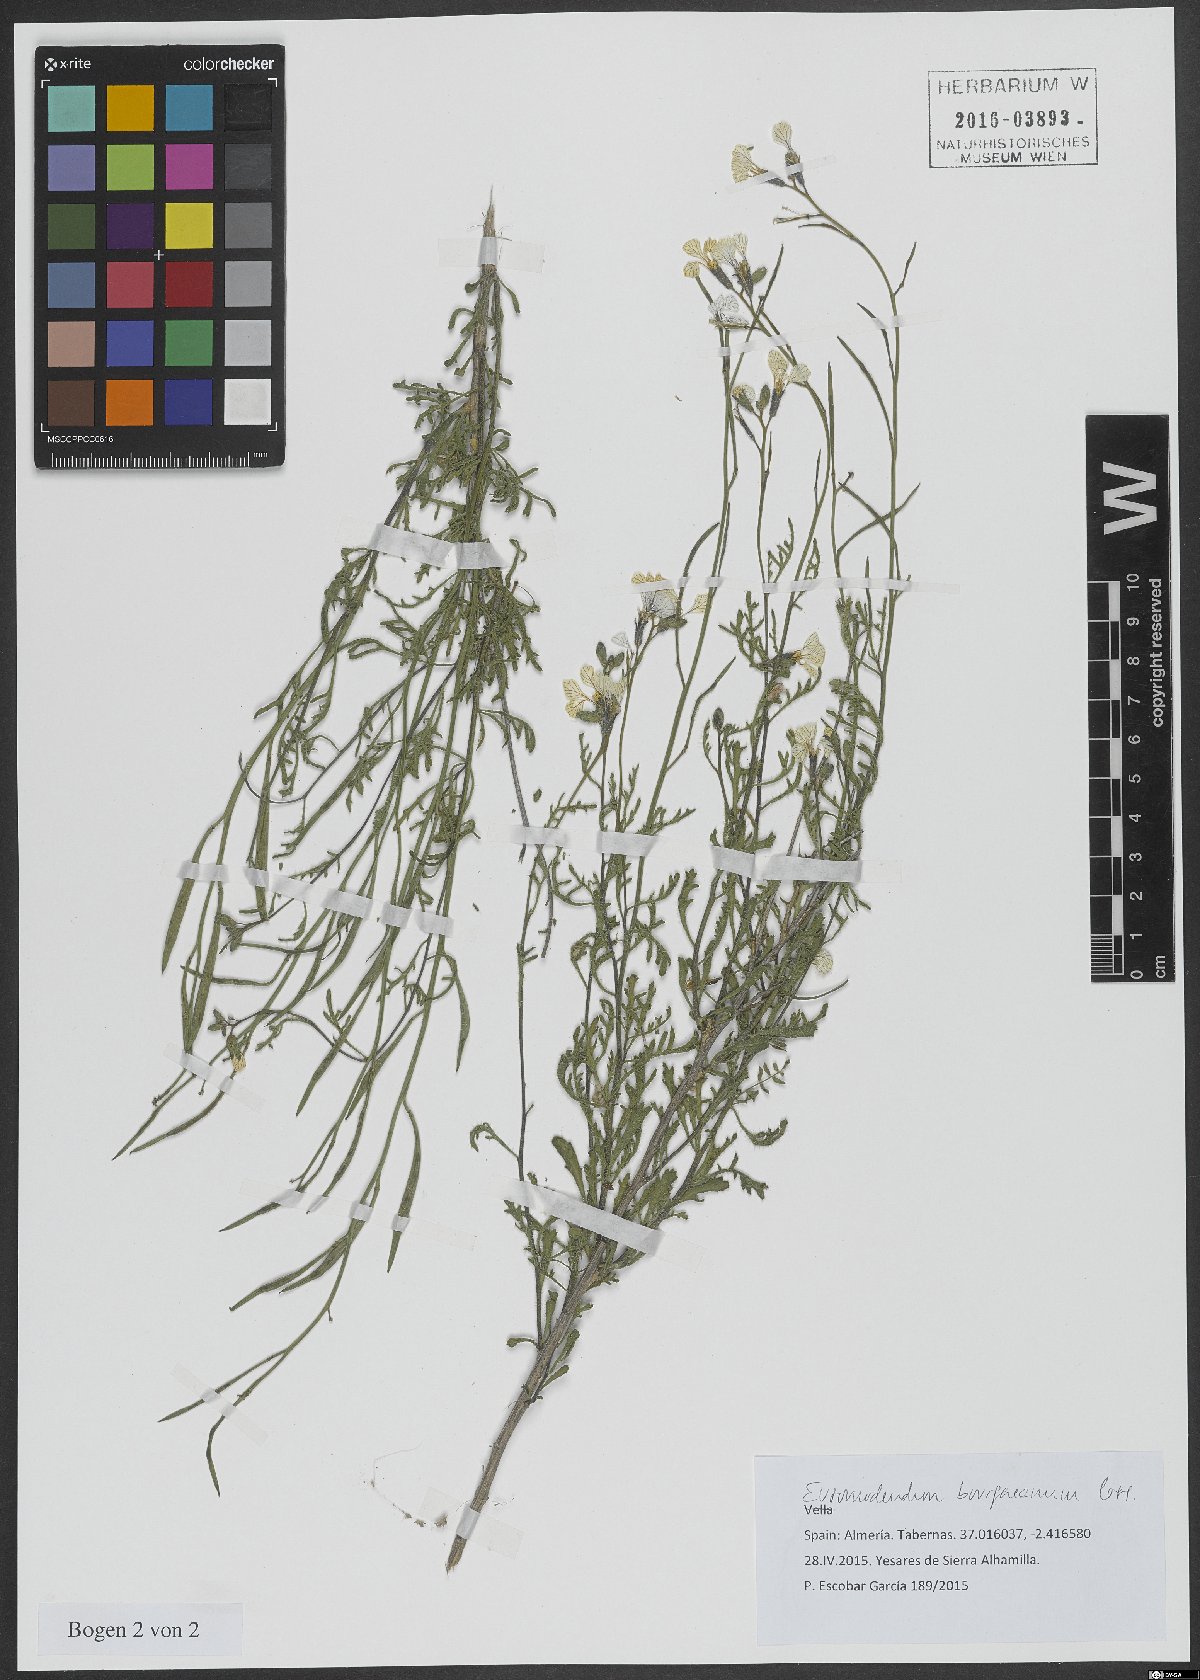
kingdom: Plantae
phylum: Tracheophyta
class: Magnoliopsida
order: Brassicales
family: Brassicaceae
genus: Vella
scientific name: Vella bourgaeana
